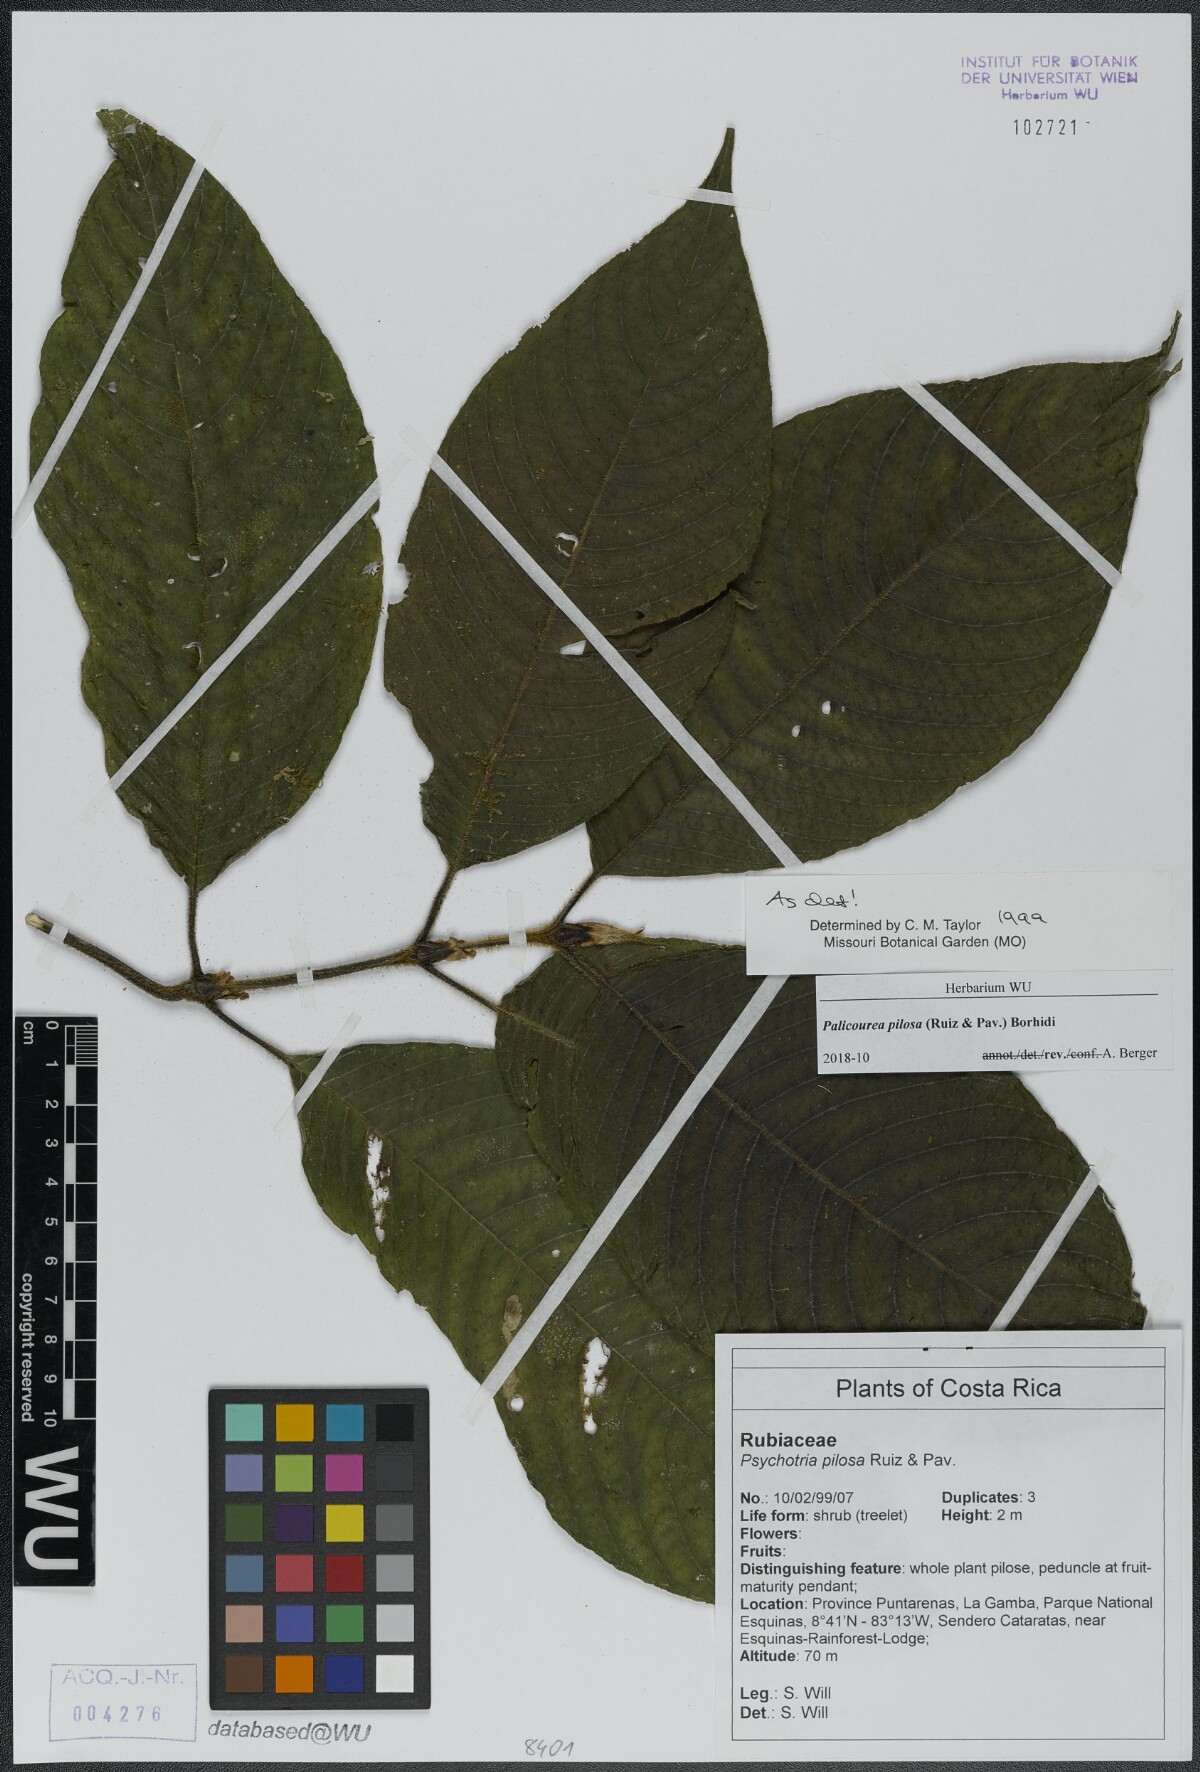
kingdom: Plantae
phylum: Tracheophyta
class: Magnoliopsida
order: Gentianales
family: Rubiaceae
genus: Palicourea
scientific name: Palicourea pilosa
